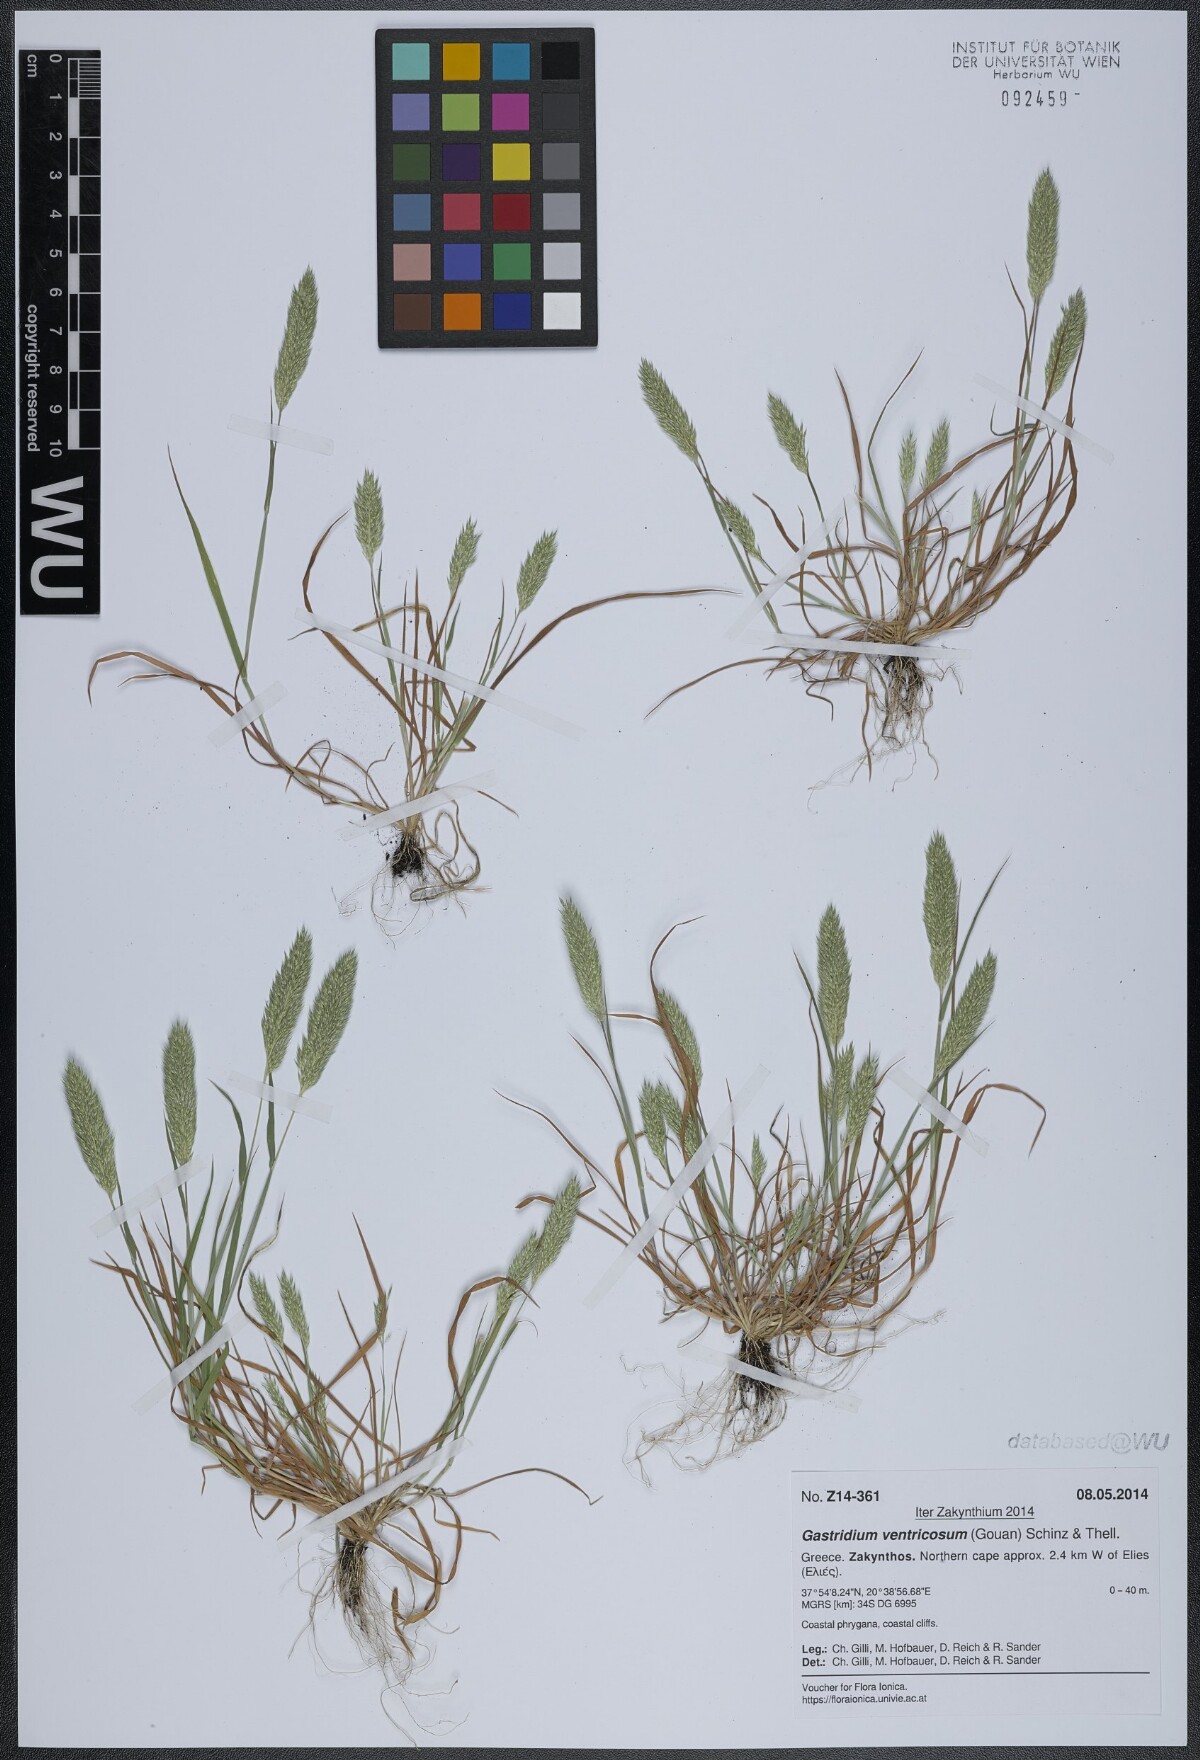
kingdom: Plantae
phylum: Tracheophyta
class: Liliopsida
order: Poales
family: Poaceae
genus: Gastridium
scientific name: Gastridium ventricosum
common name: Nit-grass
